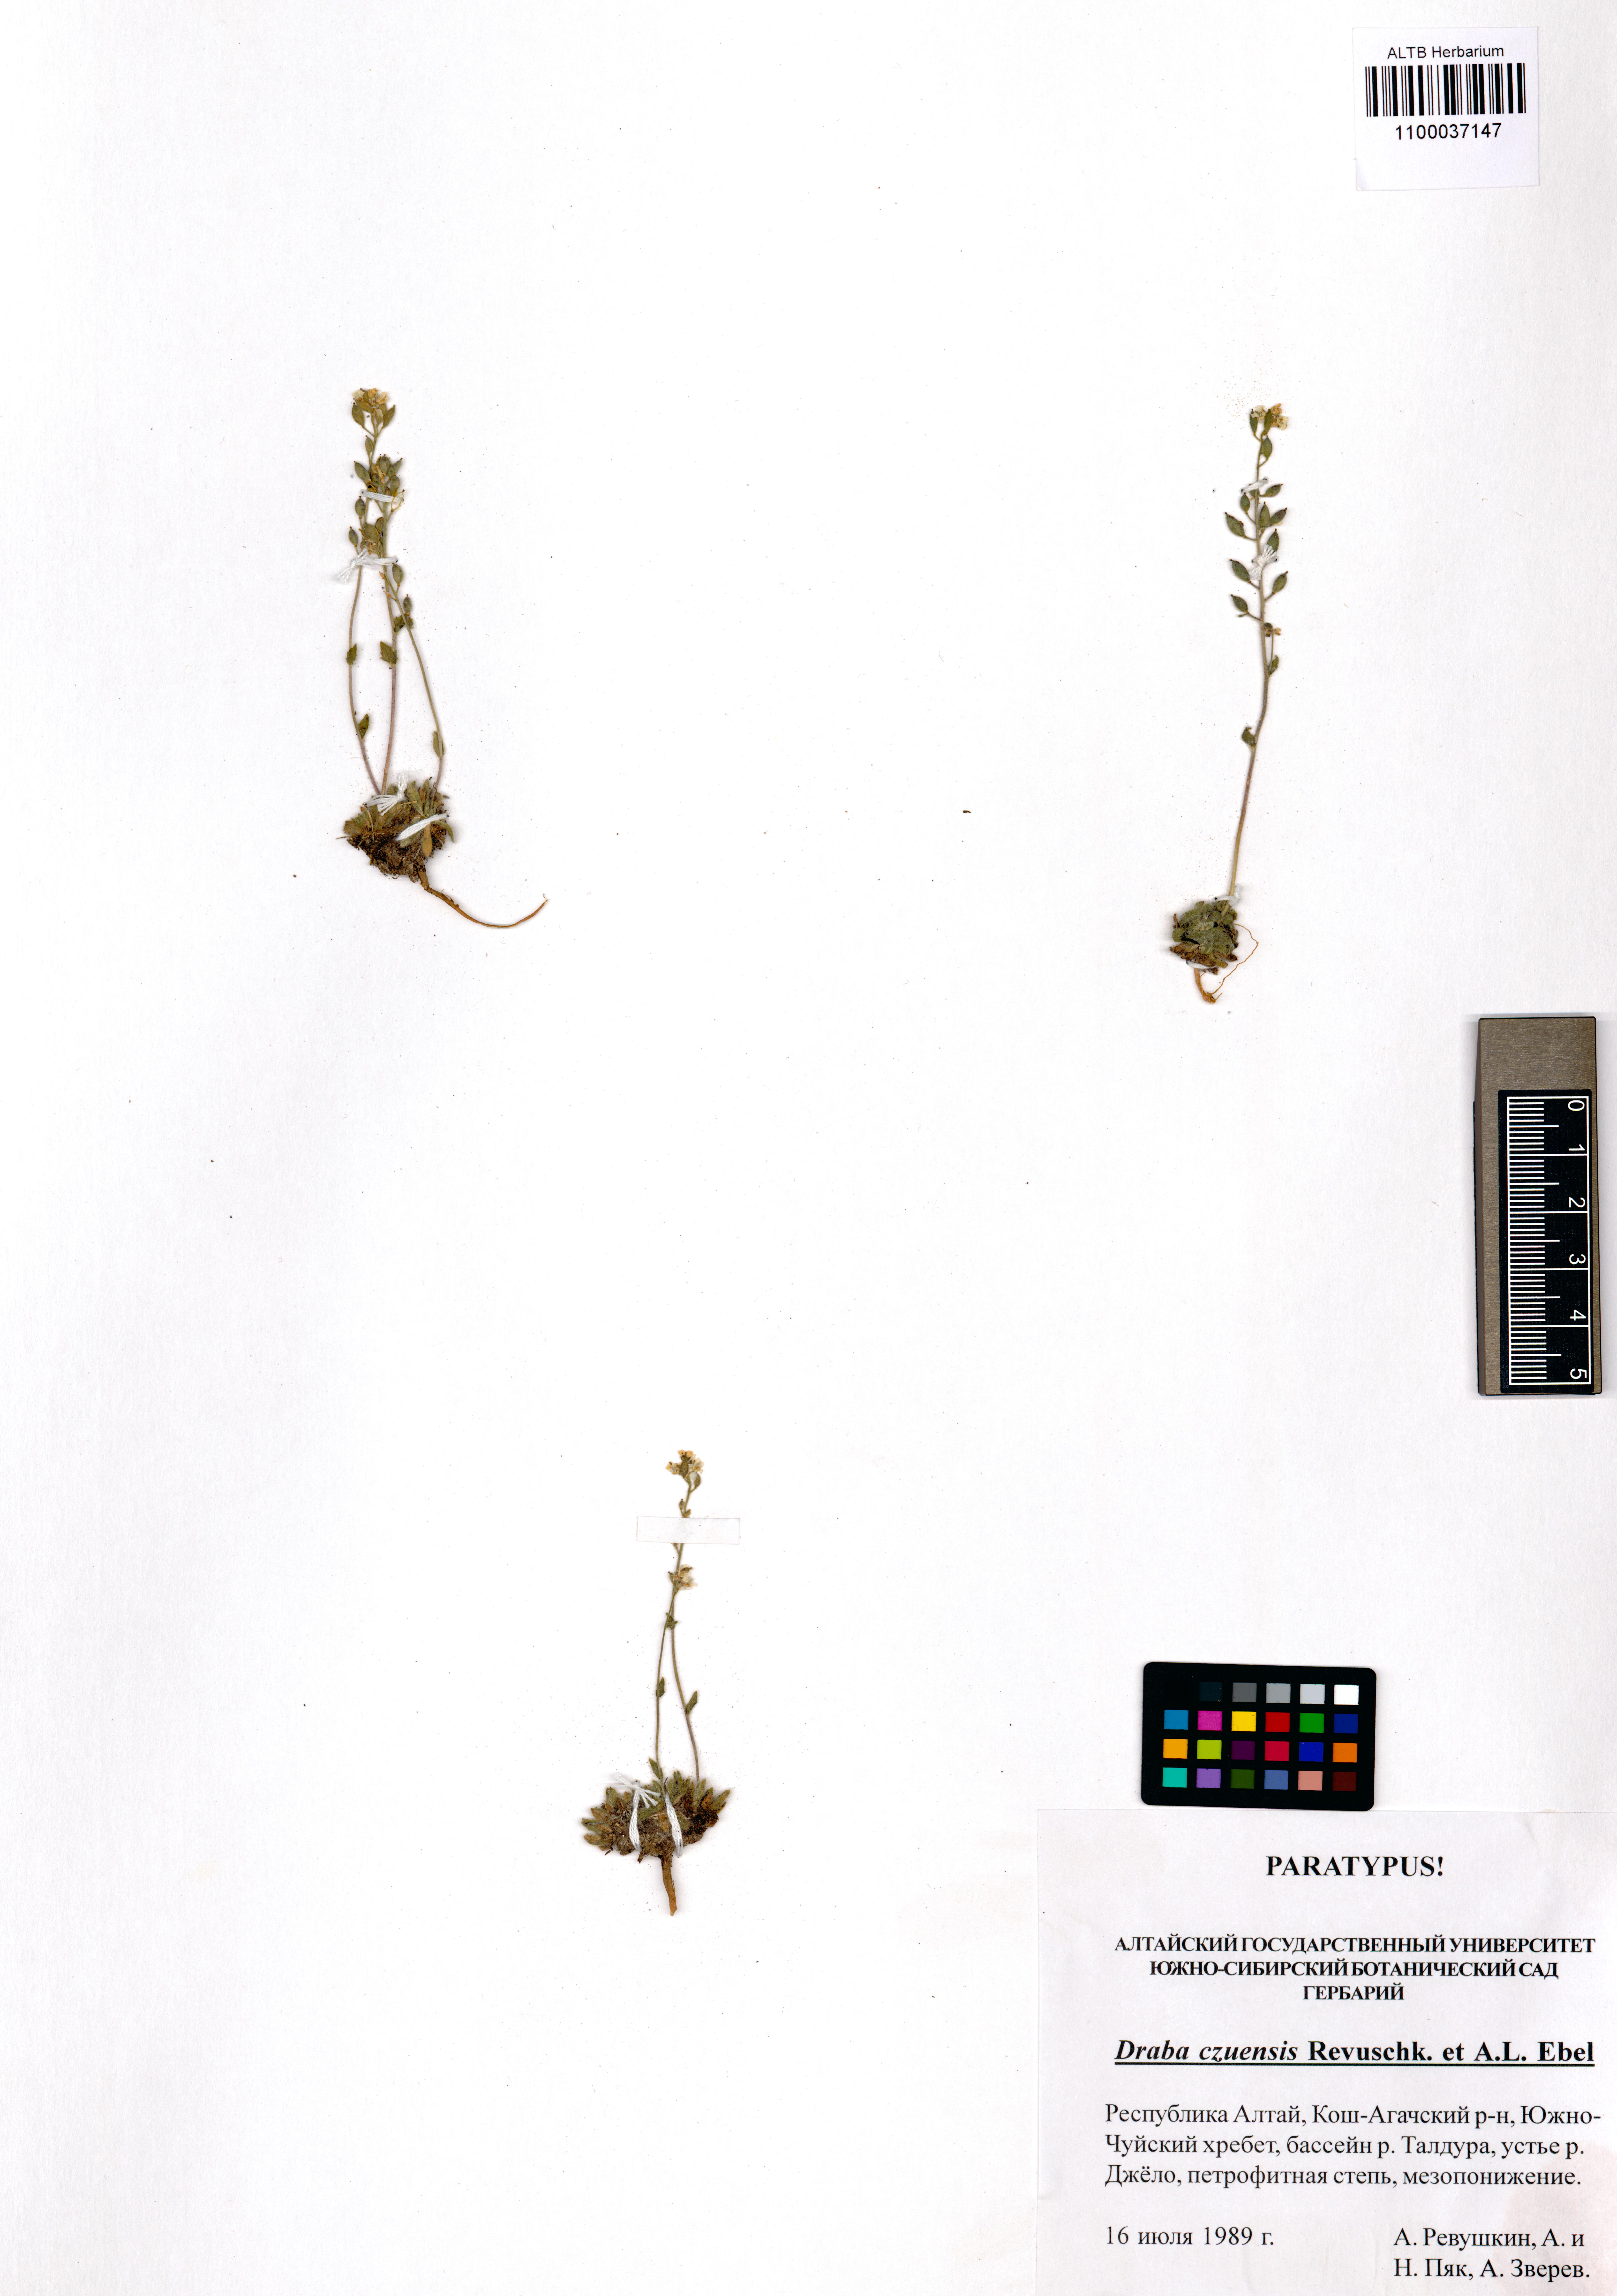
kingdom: Plantae
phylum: Tracheophyta
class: Magnoliopsida
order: Brassicales
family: Brassicaceae
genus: Draba
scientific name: Draba czuensis
